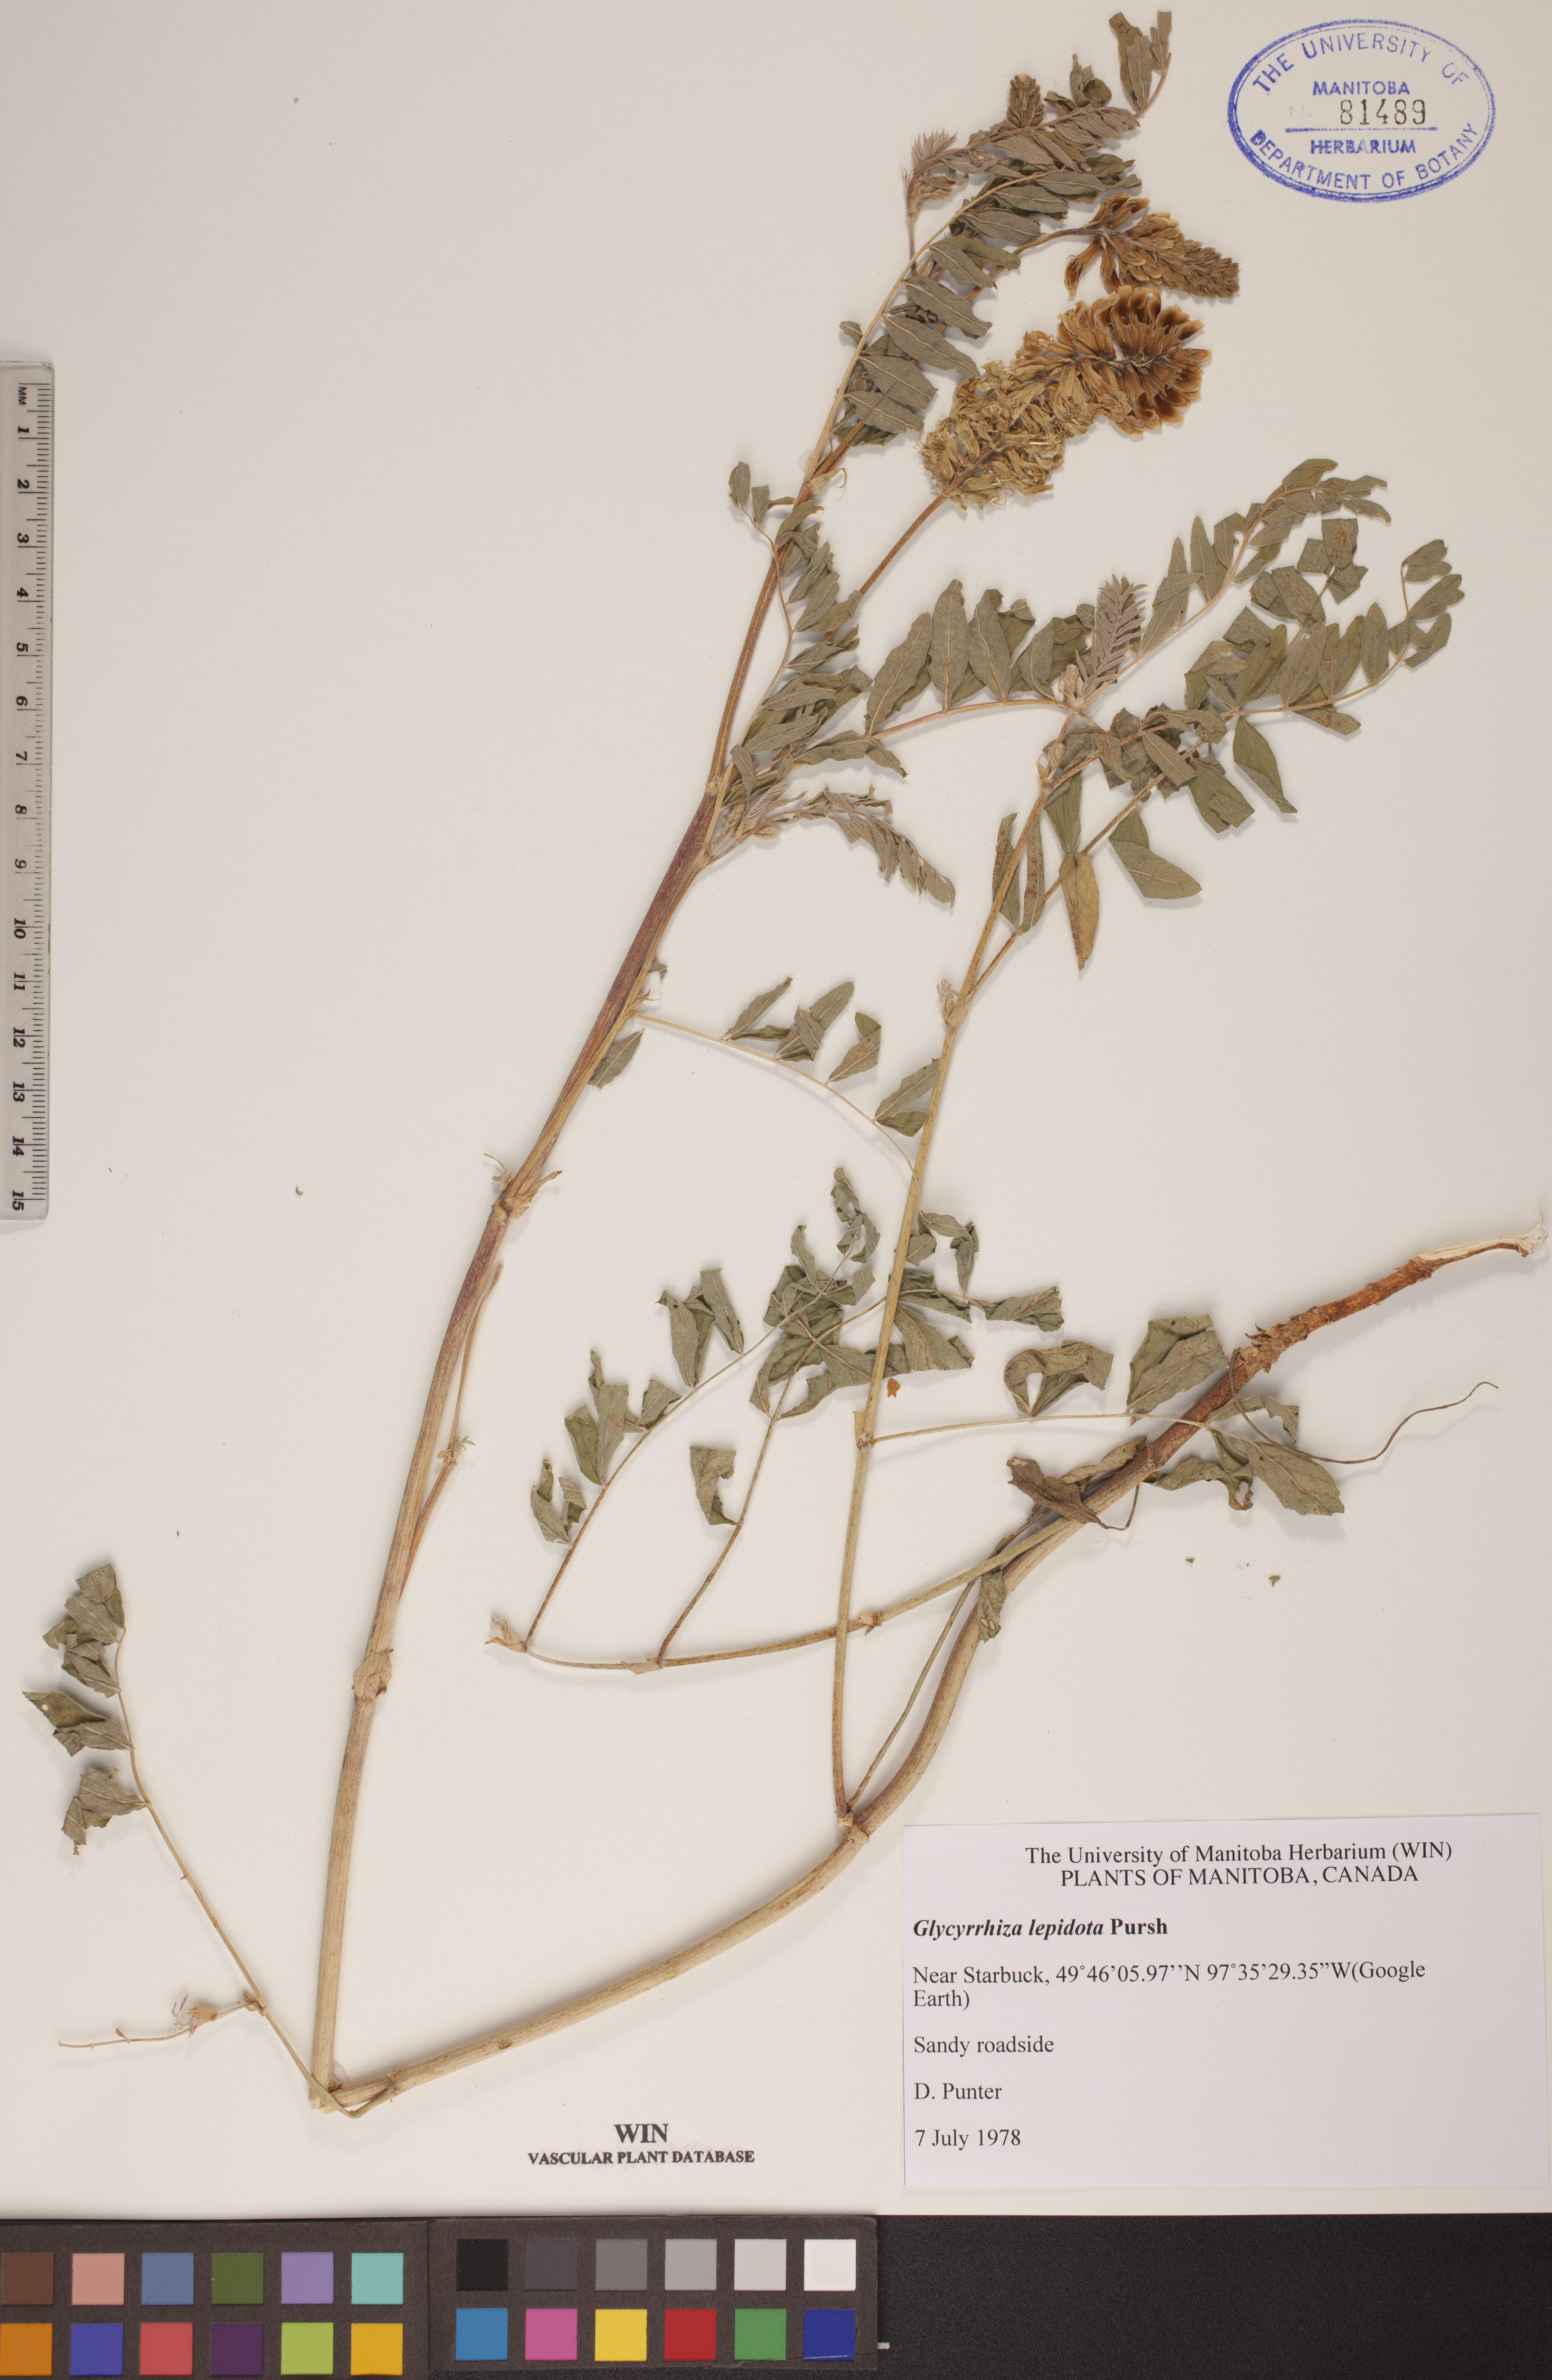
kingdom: Plantae
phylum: Tracheophyta
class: Magnoliopsida
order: Fabales
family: Fabaceae
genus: Glycyrrhiza
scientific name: Glycyrrhiza lepidota
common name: American liquorice
